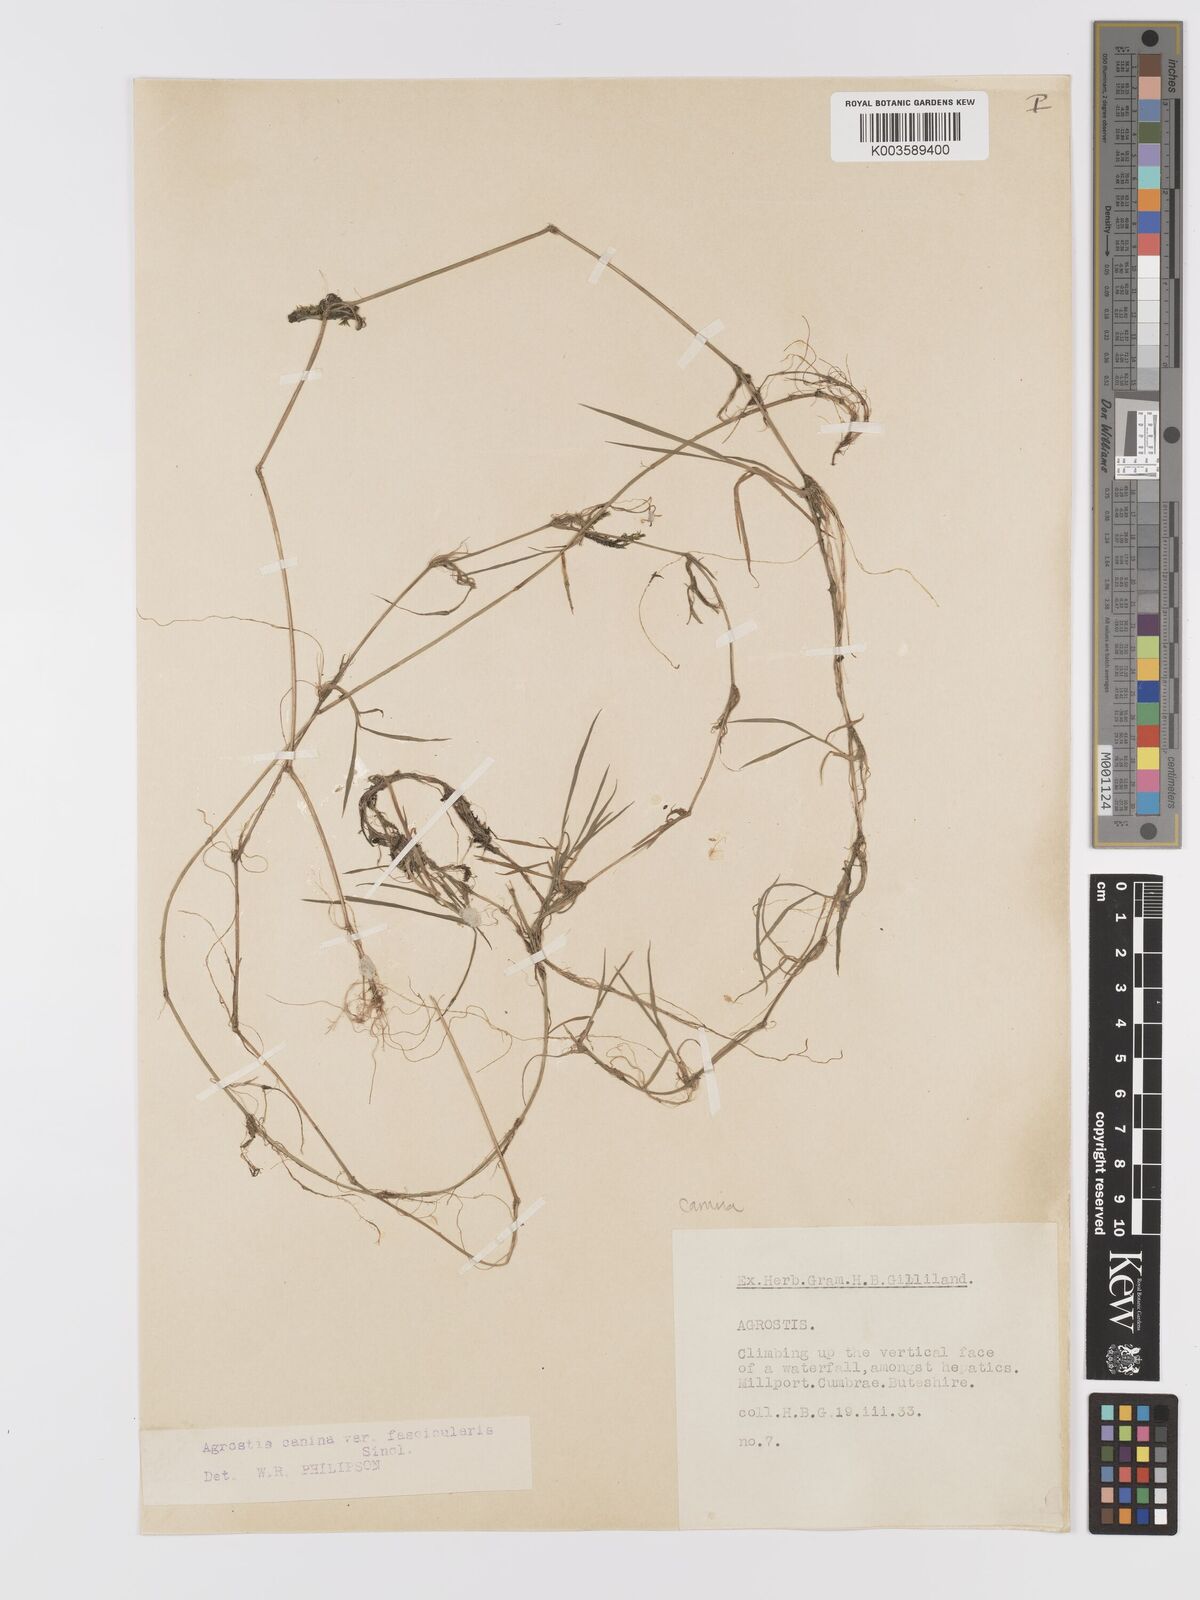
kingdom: Plantae
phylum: Tracheophyta
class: Liliopsida
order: Poales
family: Poaceae
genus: Agrostis
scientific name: Agrostis canina
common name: Velvet bent
